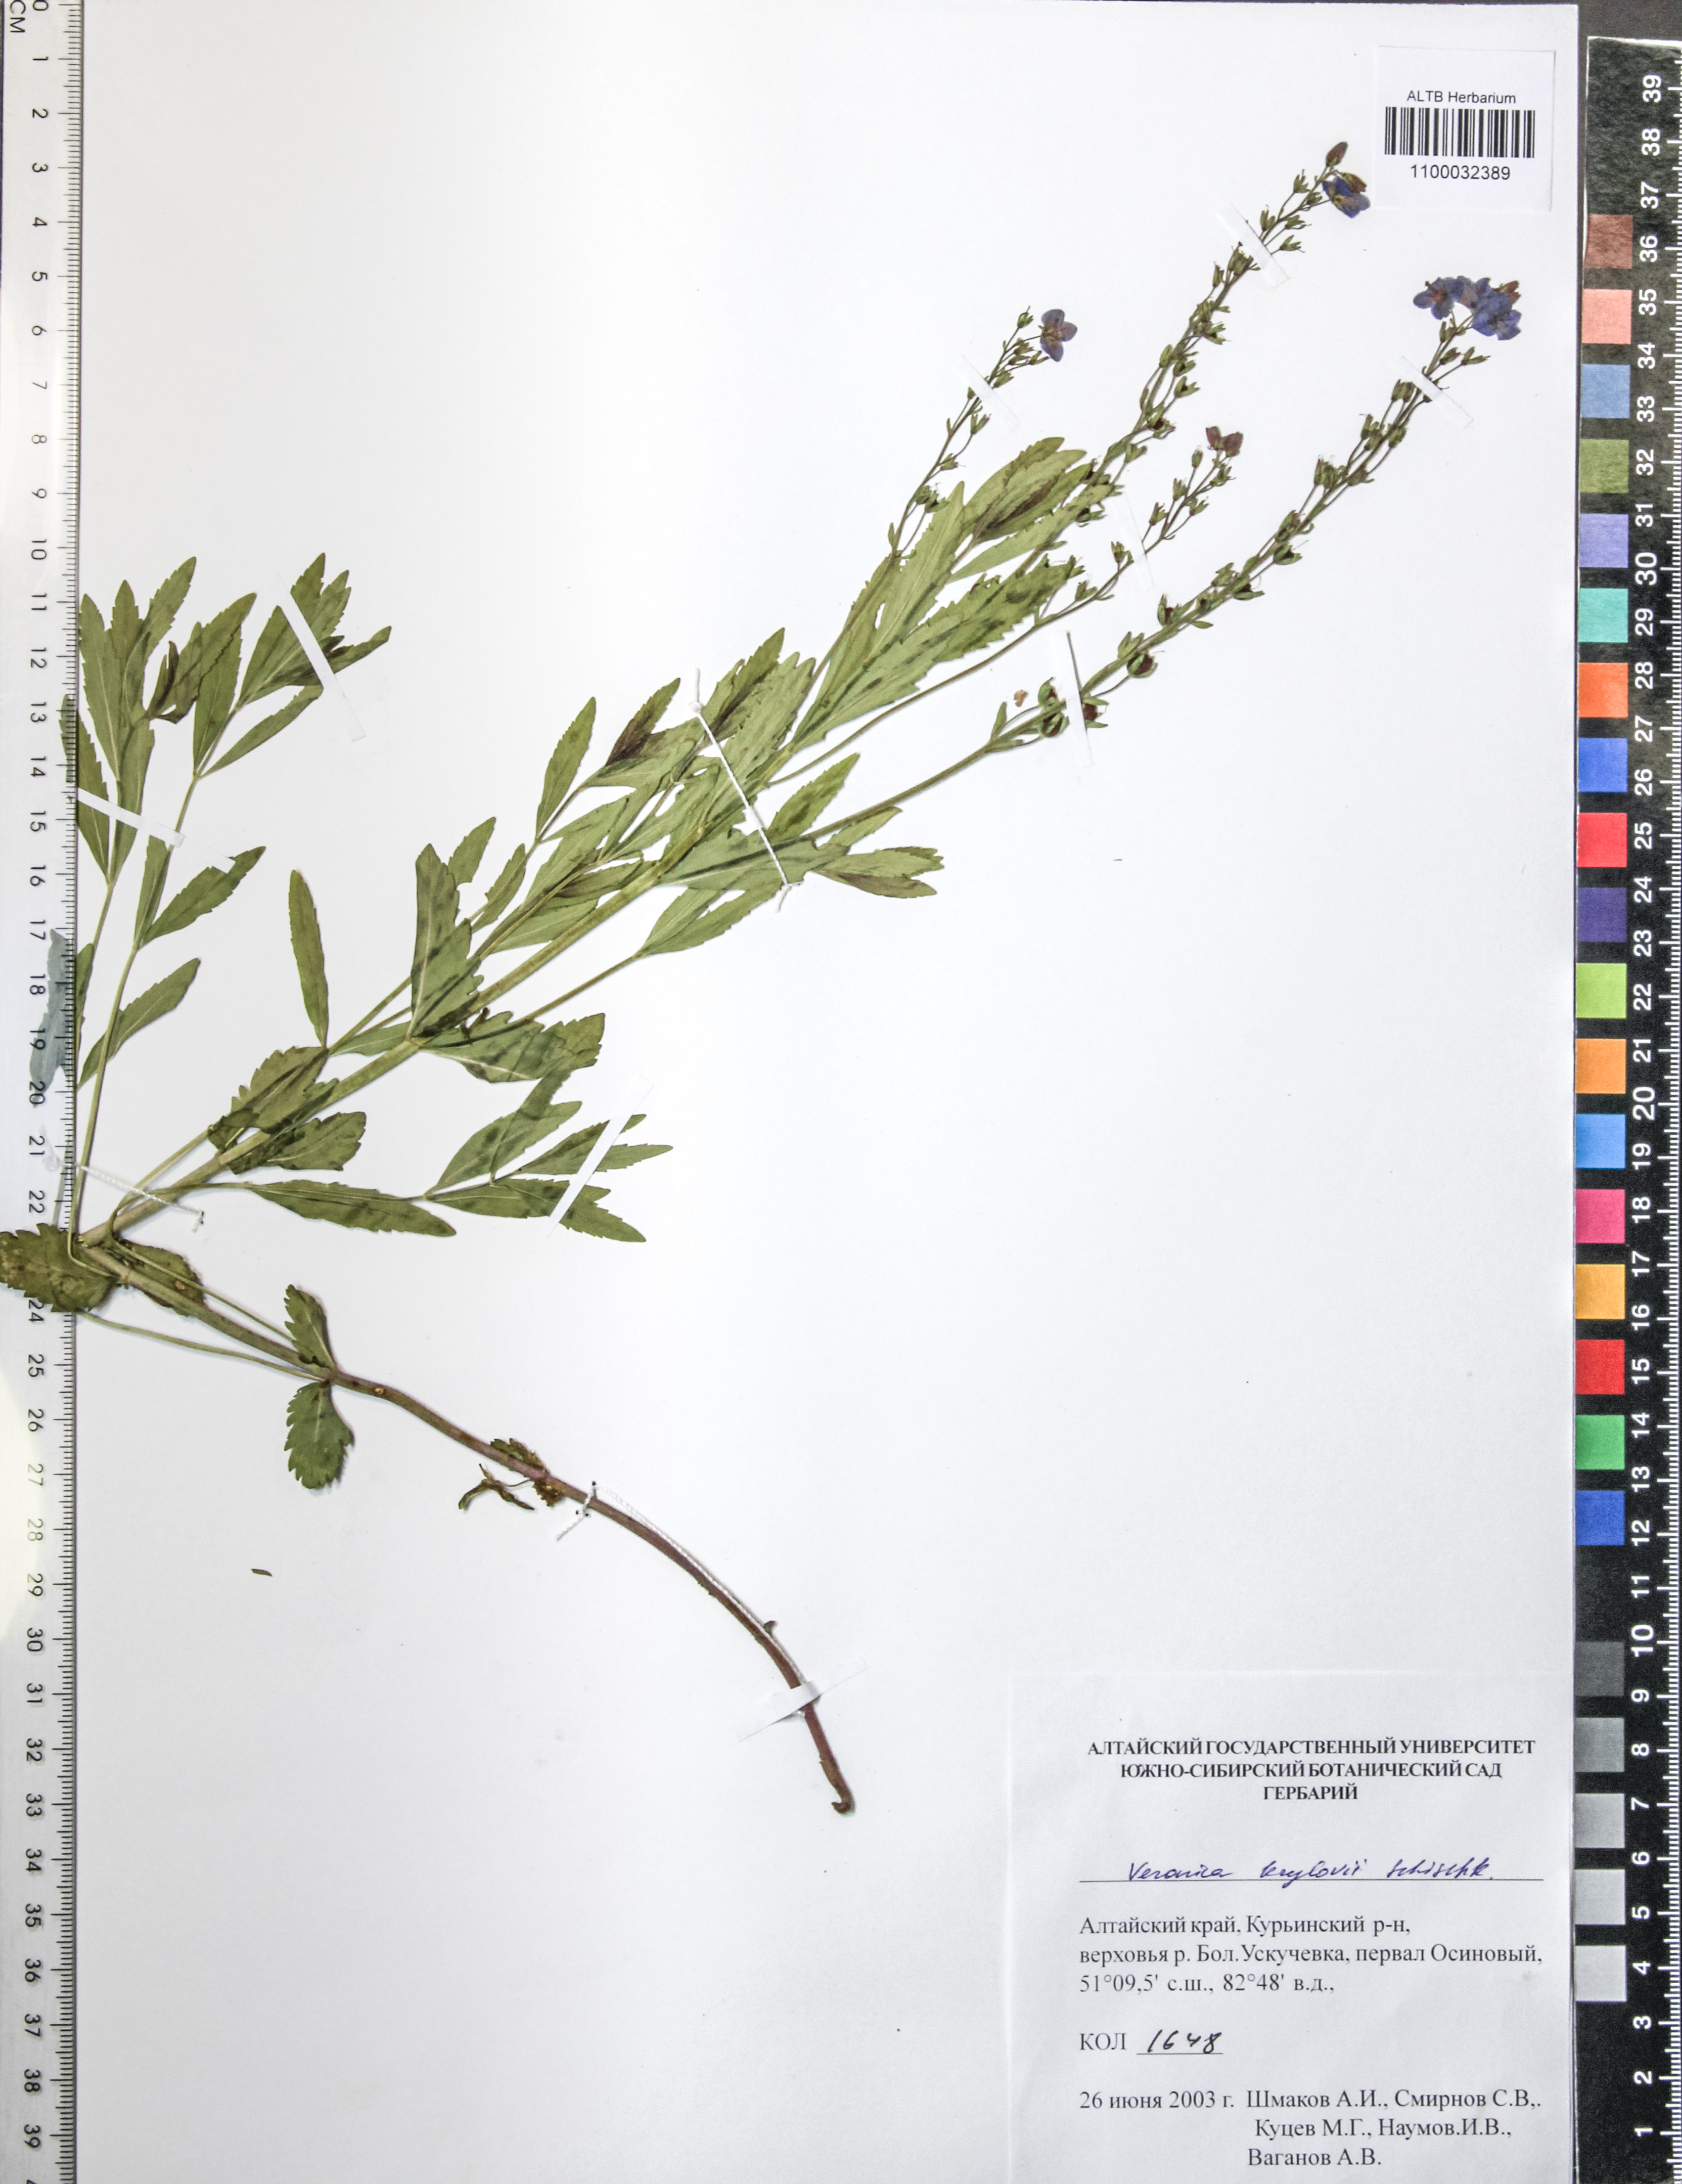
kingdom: Plantae
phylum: Tracheophyta
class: Magnoliopsida
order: Lamiales
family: Plantaginaceae
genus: Veronica
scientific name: Veronica krylovii
